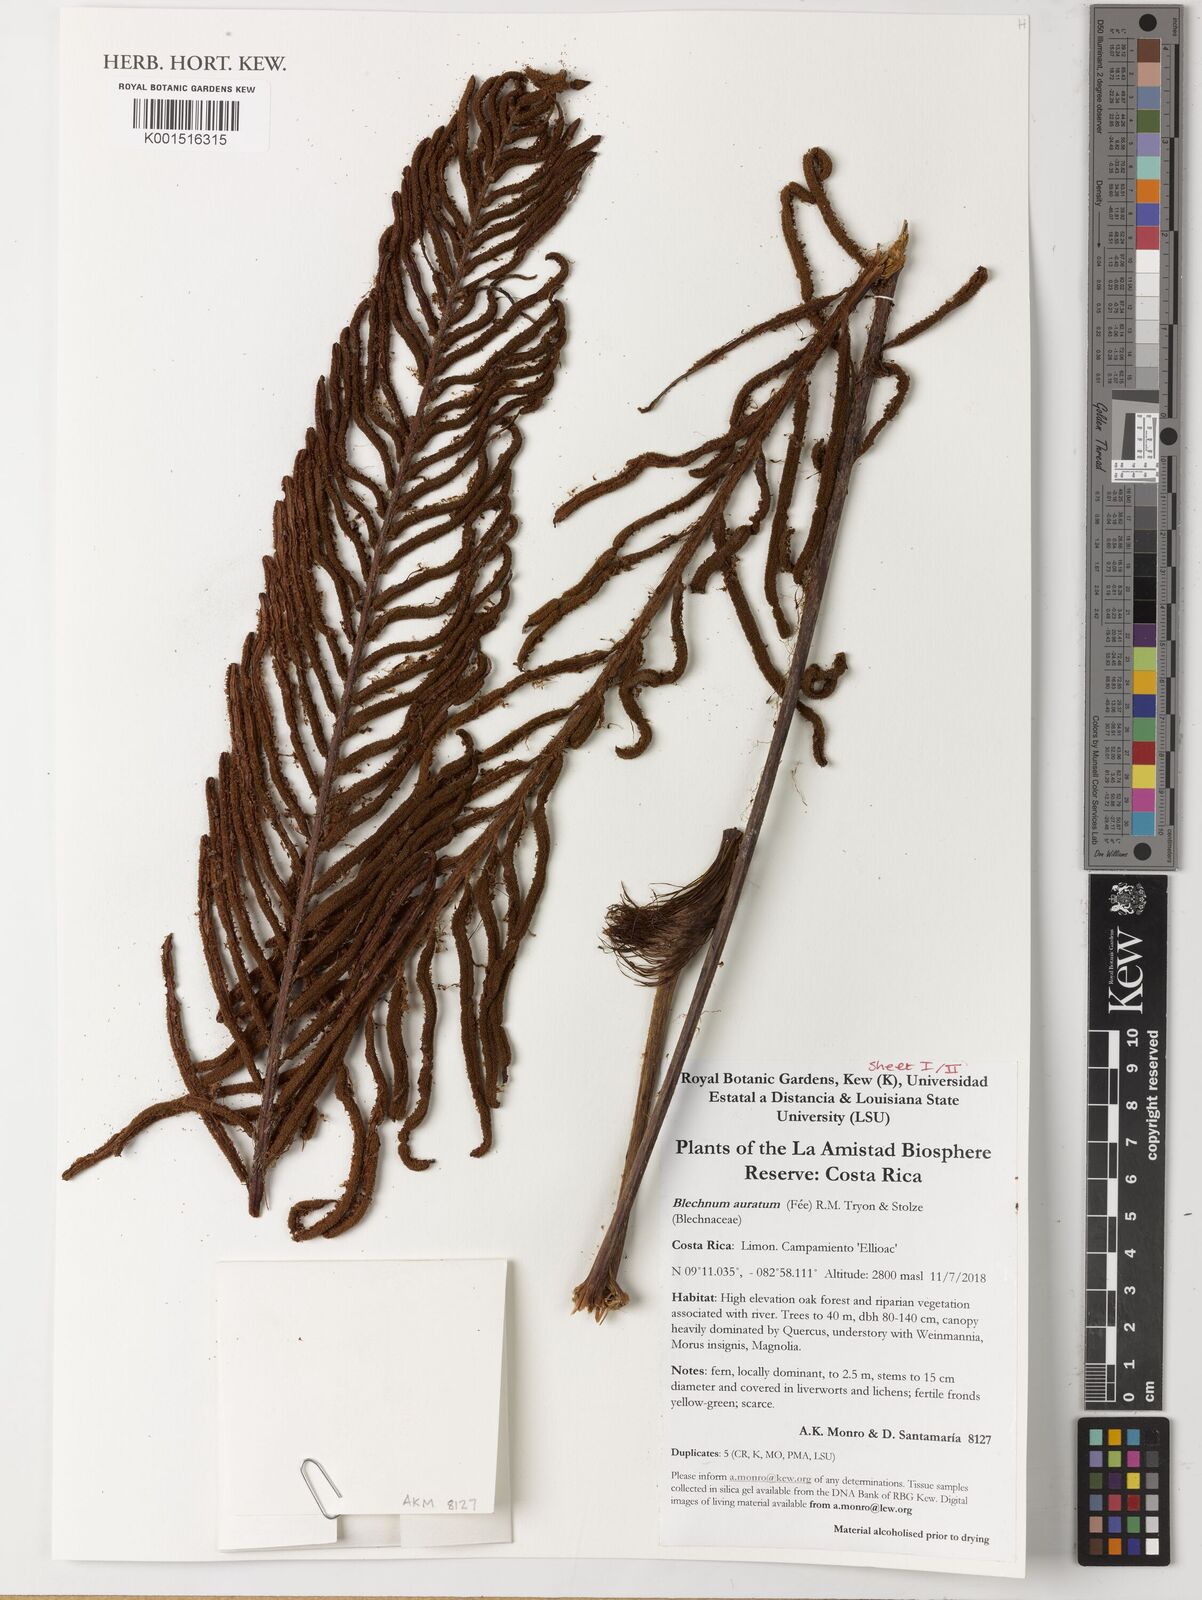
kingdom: Plantae
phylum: Tracheophyta
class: Polypodiopsida
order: Polypodiales
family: Blechnaceae
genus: Lomariocycas
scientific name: Lomariocycas aurata
